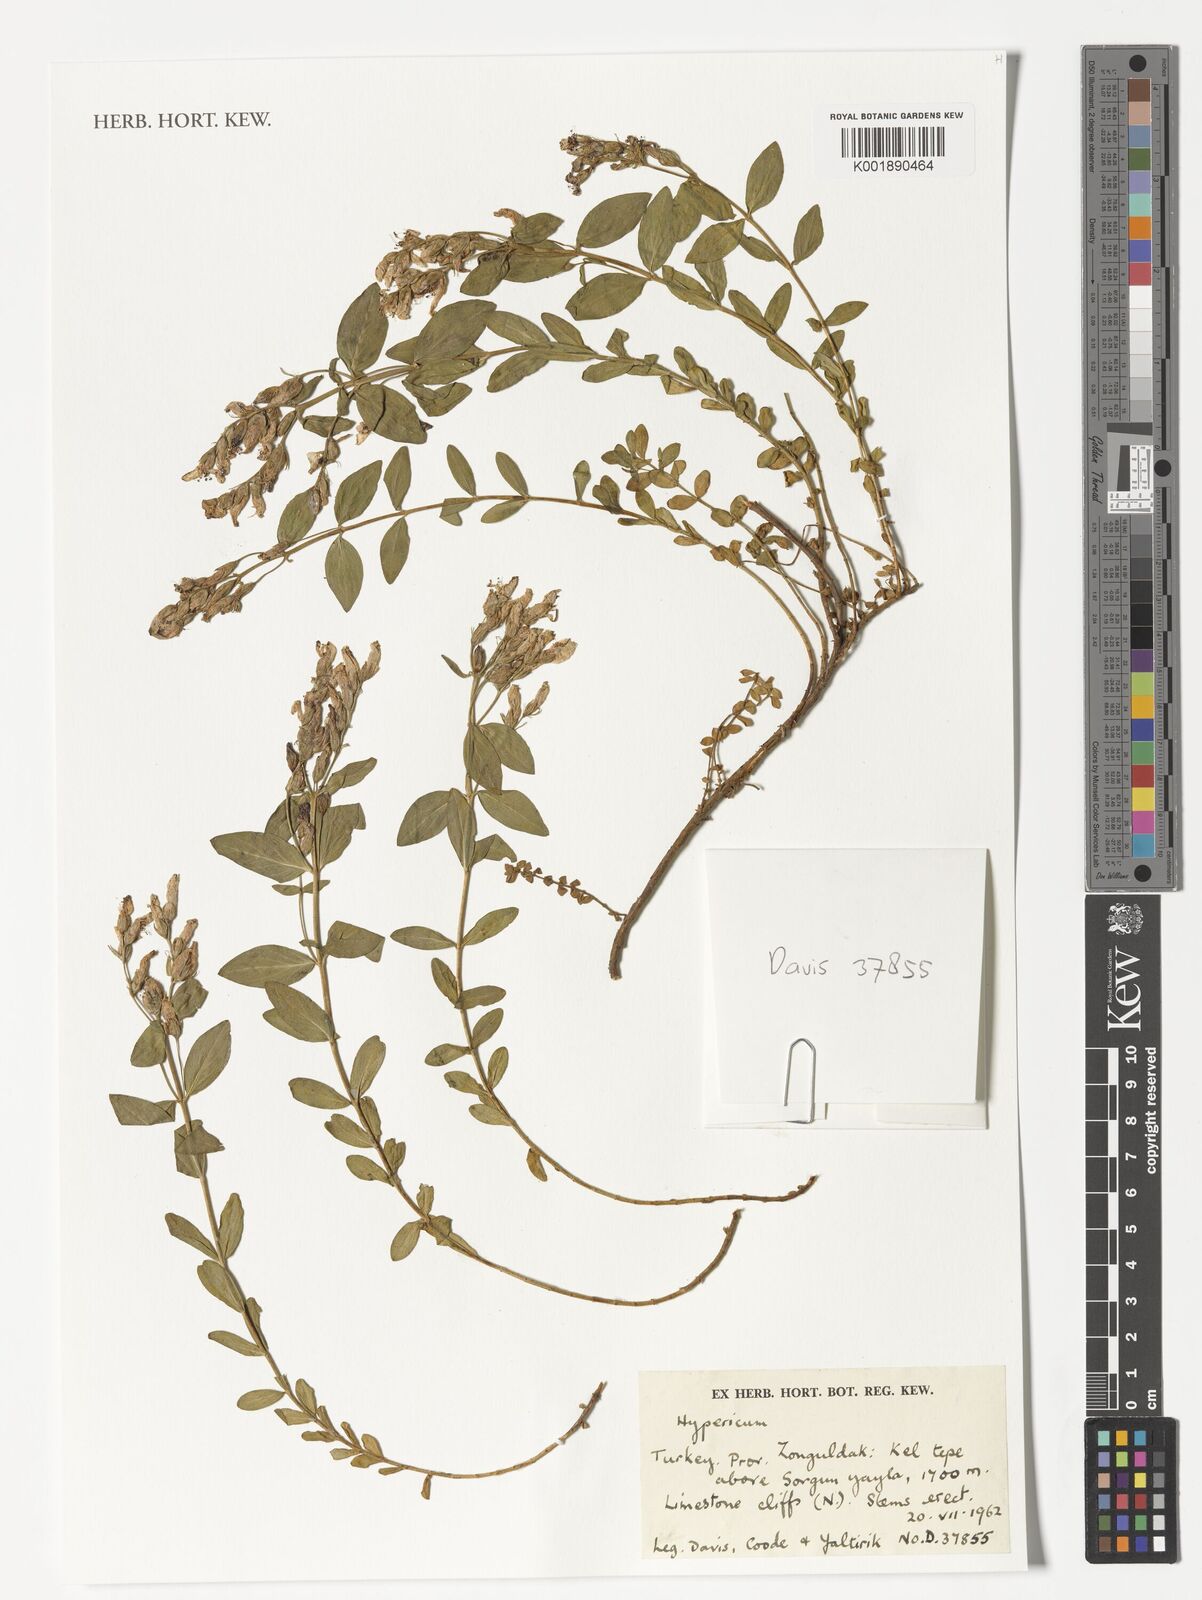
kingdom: Plantae
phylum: Tracheophyta
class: Magnoliopsida
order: Malpighiales
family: Hypericaceae
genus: Hypericum
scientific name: Hypericum
